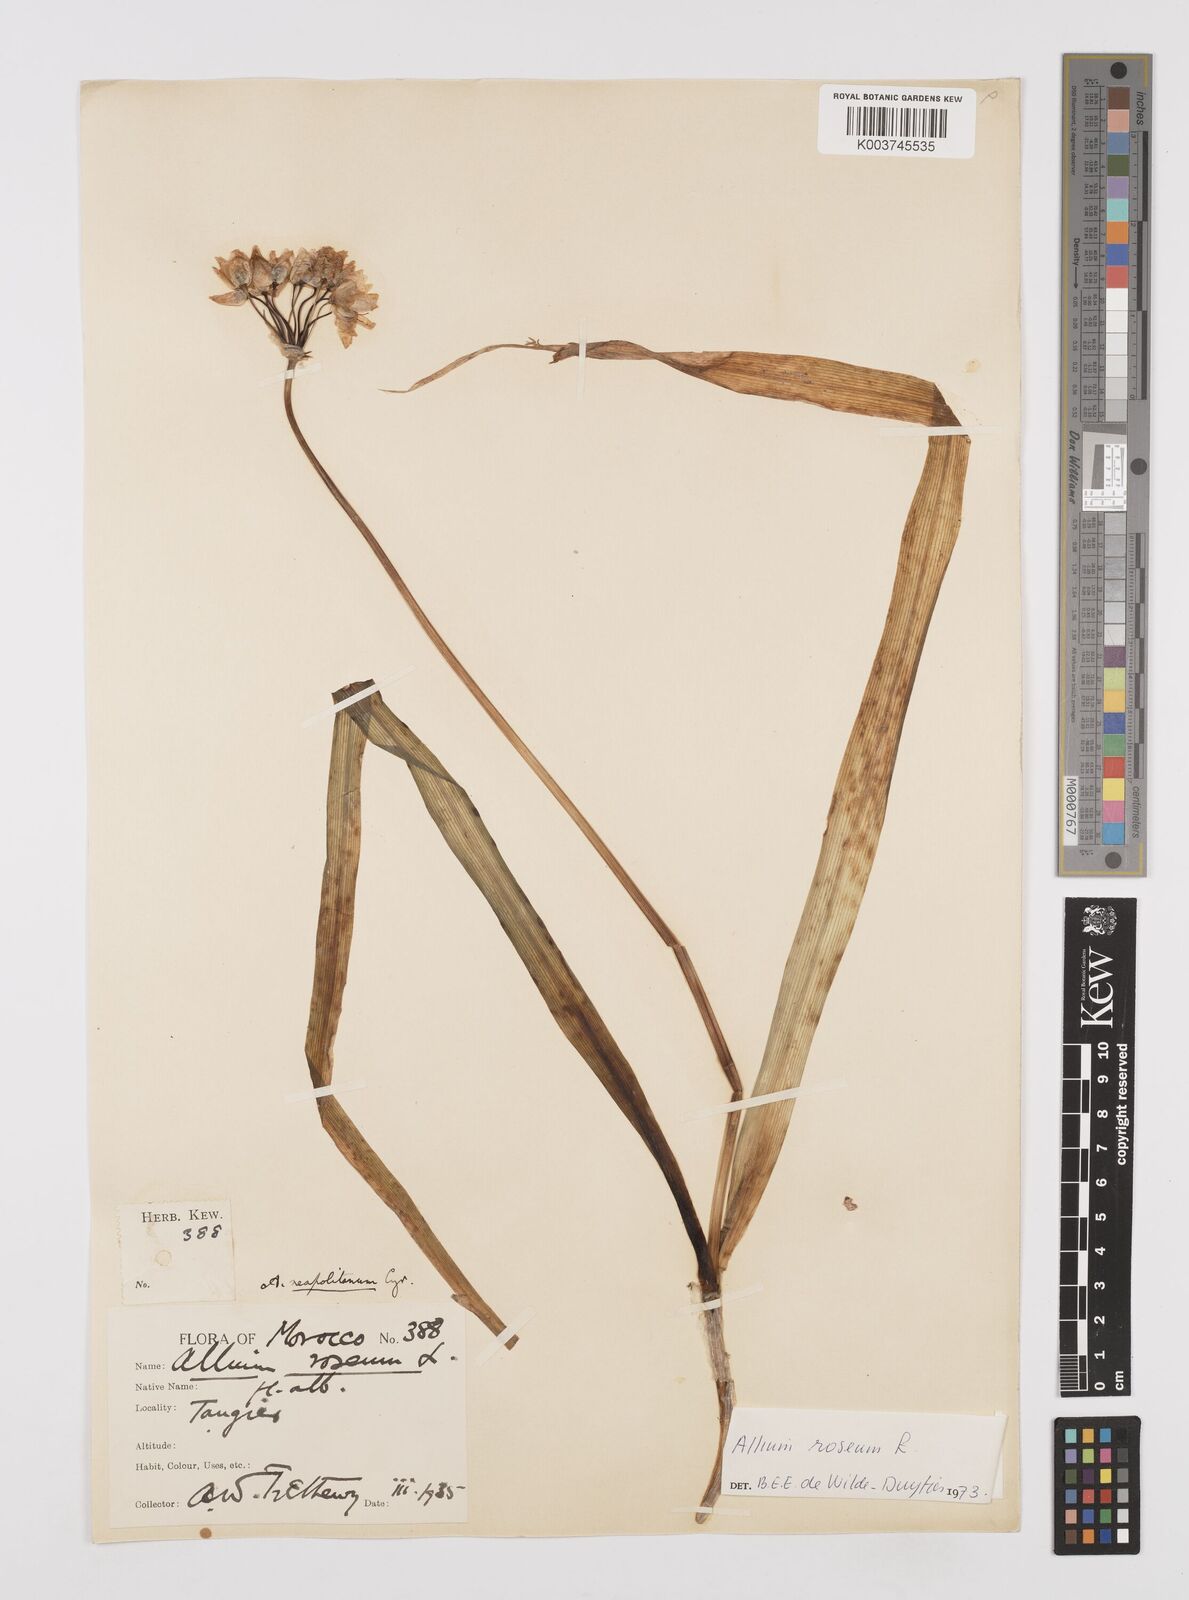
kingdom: Plantae
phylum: Tracheophyta
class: Liliopsida
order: Asparagales
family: Amaryllidaceae
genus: Allium
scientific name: Allium roseum
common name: Rosy garlic
